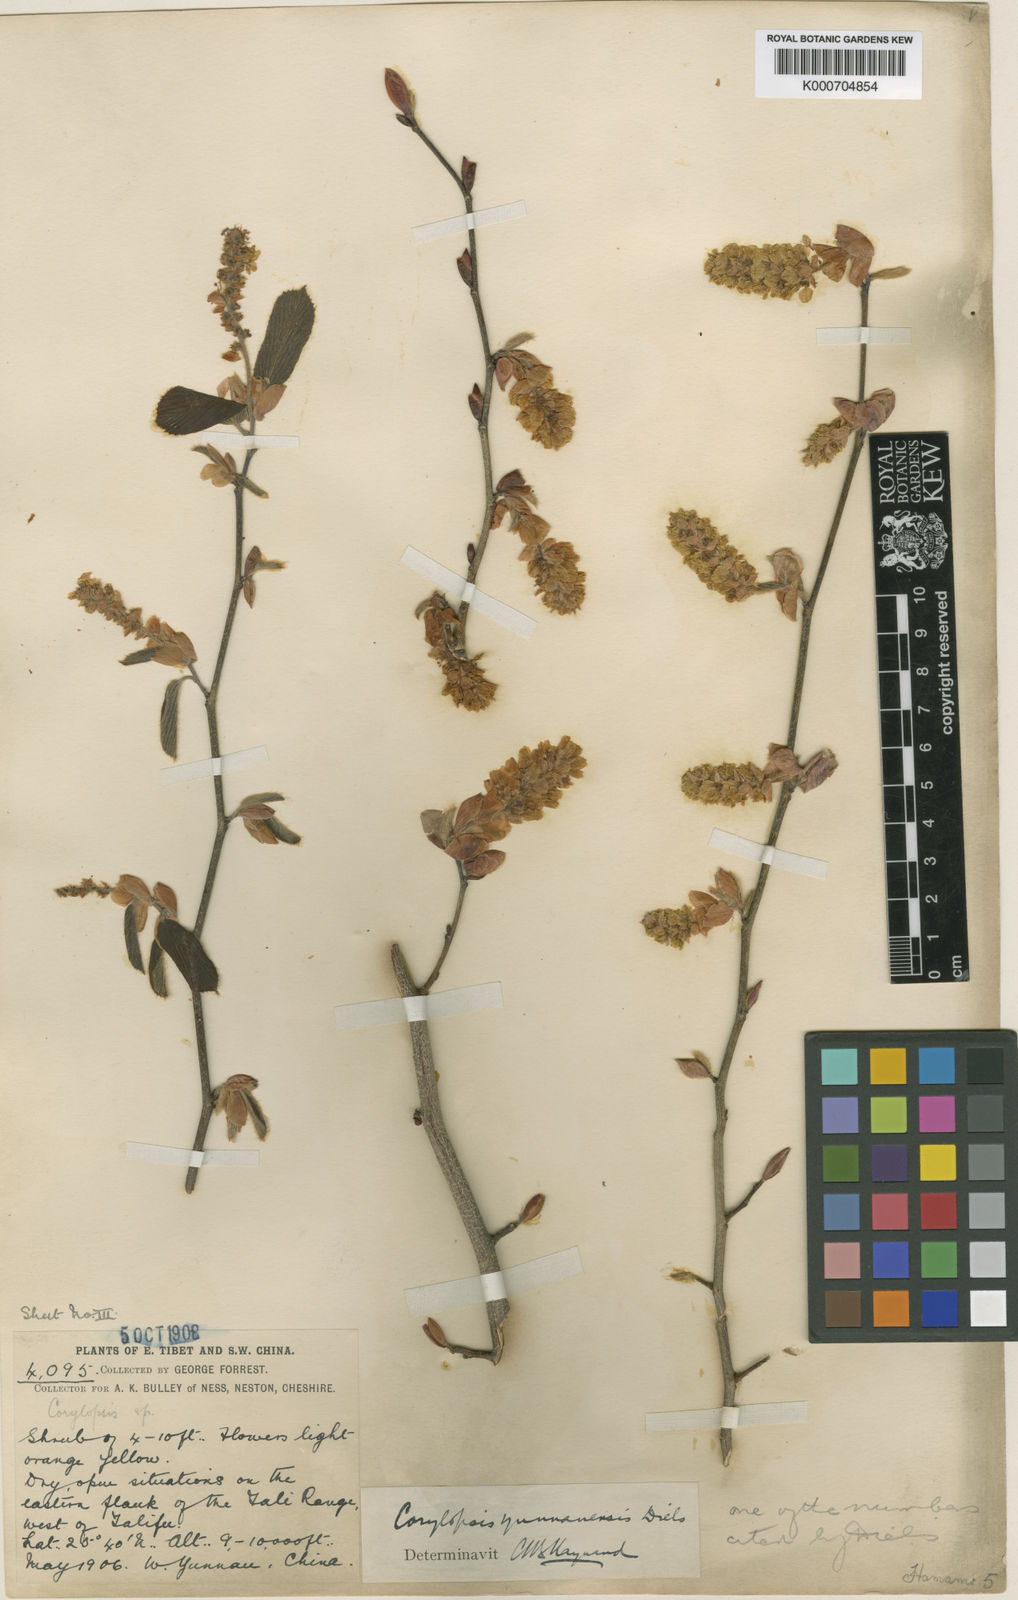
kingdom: Plantae
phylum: Tracheophyta
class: Magnoliopsida
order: Saxifragales
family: Hamamelidaceae
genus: Corylopsis
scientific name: Corylopsis sinensis
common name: Winter hazel
